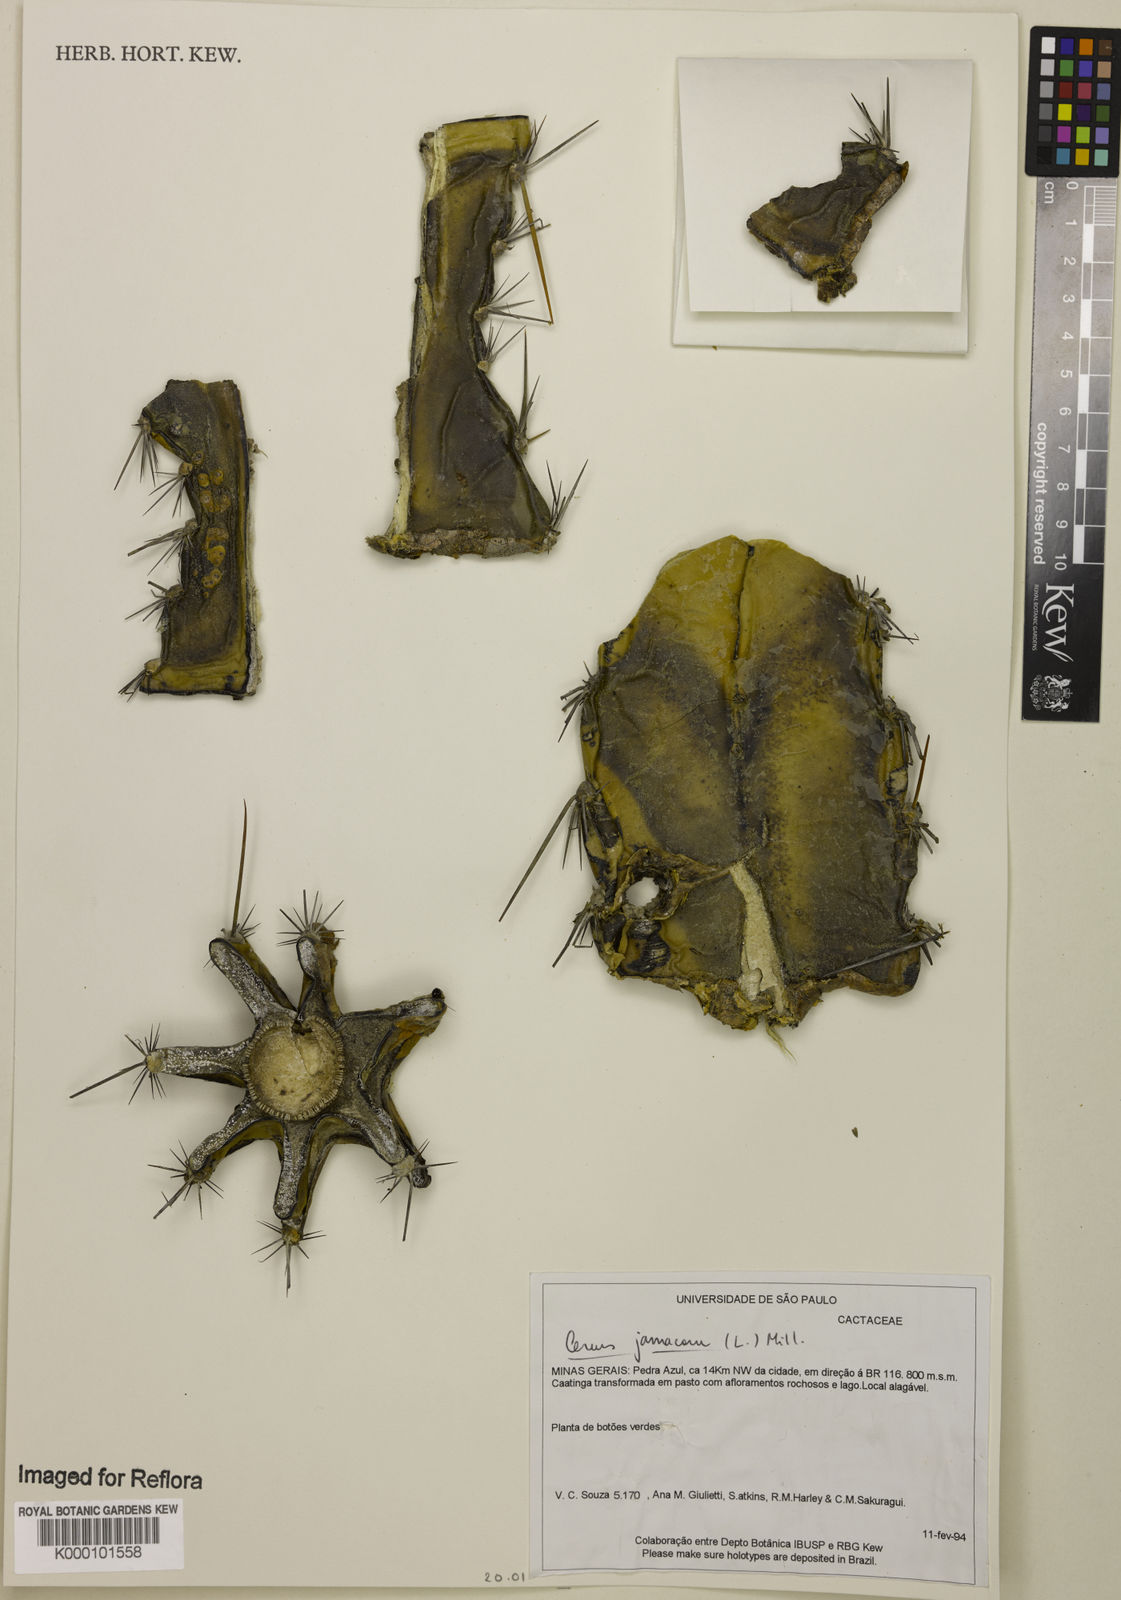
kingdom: Plantae
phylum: Tracheophyta
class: Magnoliopsida
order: Caryophyllales
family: Cactaceae
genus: Cereus
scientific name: Cereus
